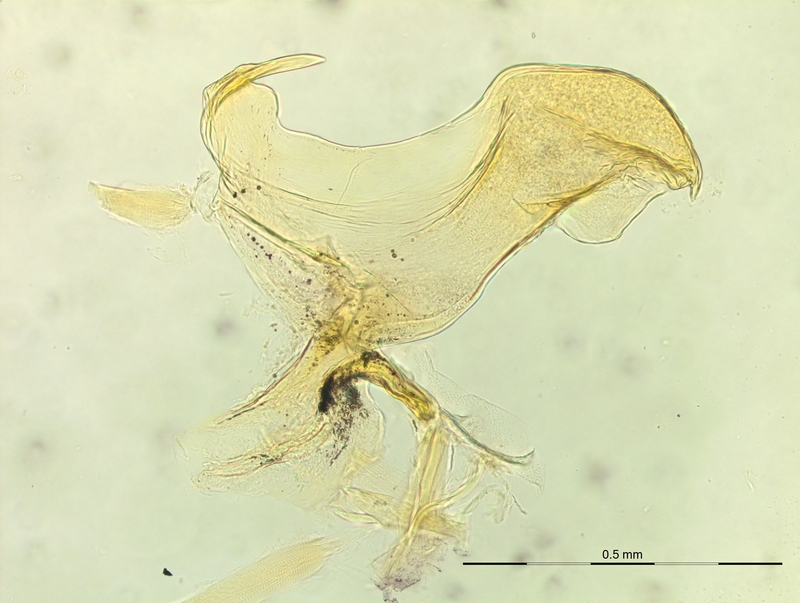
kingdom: Animalia
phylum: Arthropoda
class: Diplopoda
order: Chordeumatida
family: Craspedosomatidae
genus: Rhymogona
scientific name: Rhymogona montivaga
